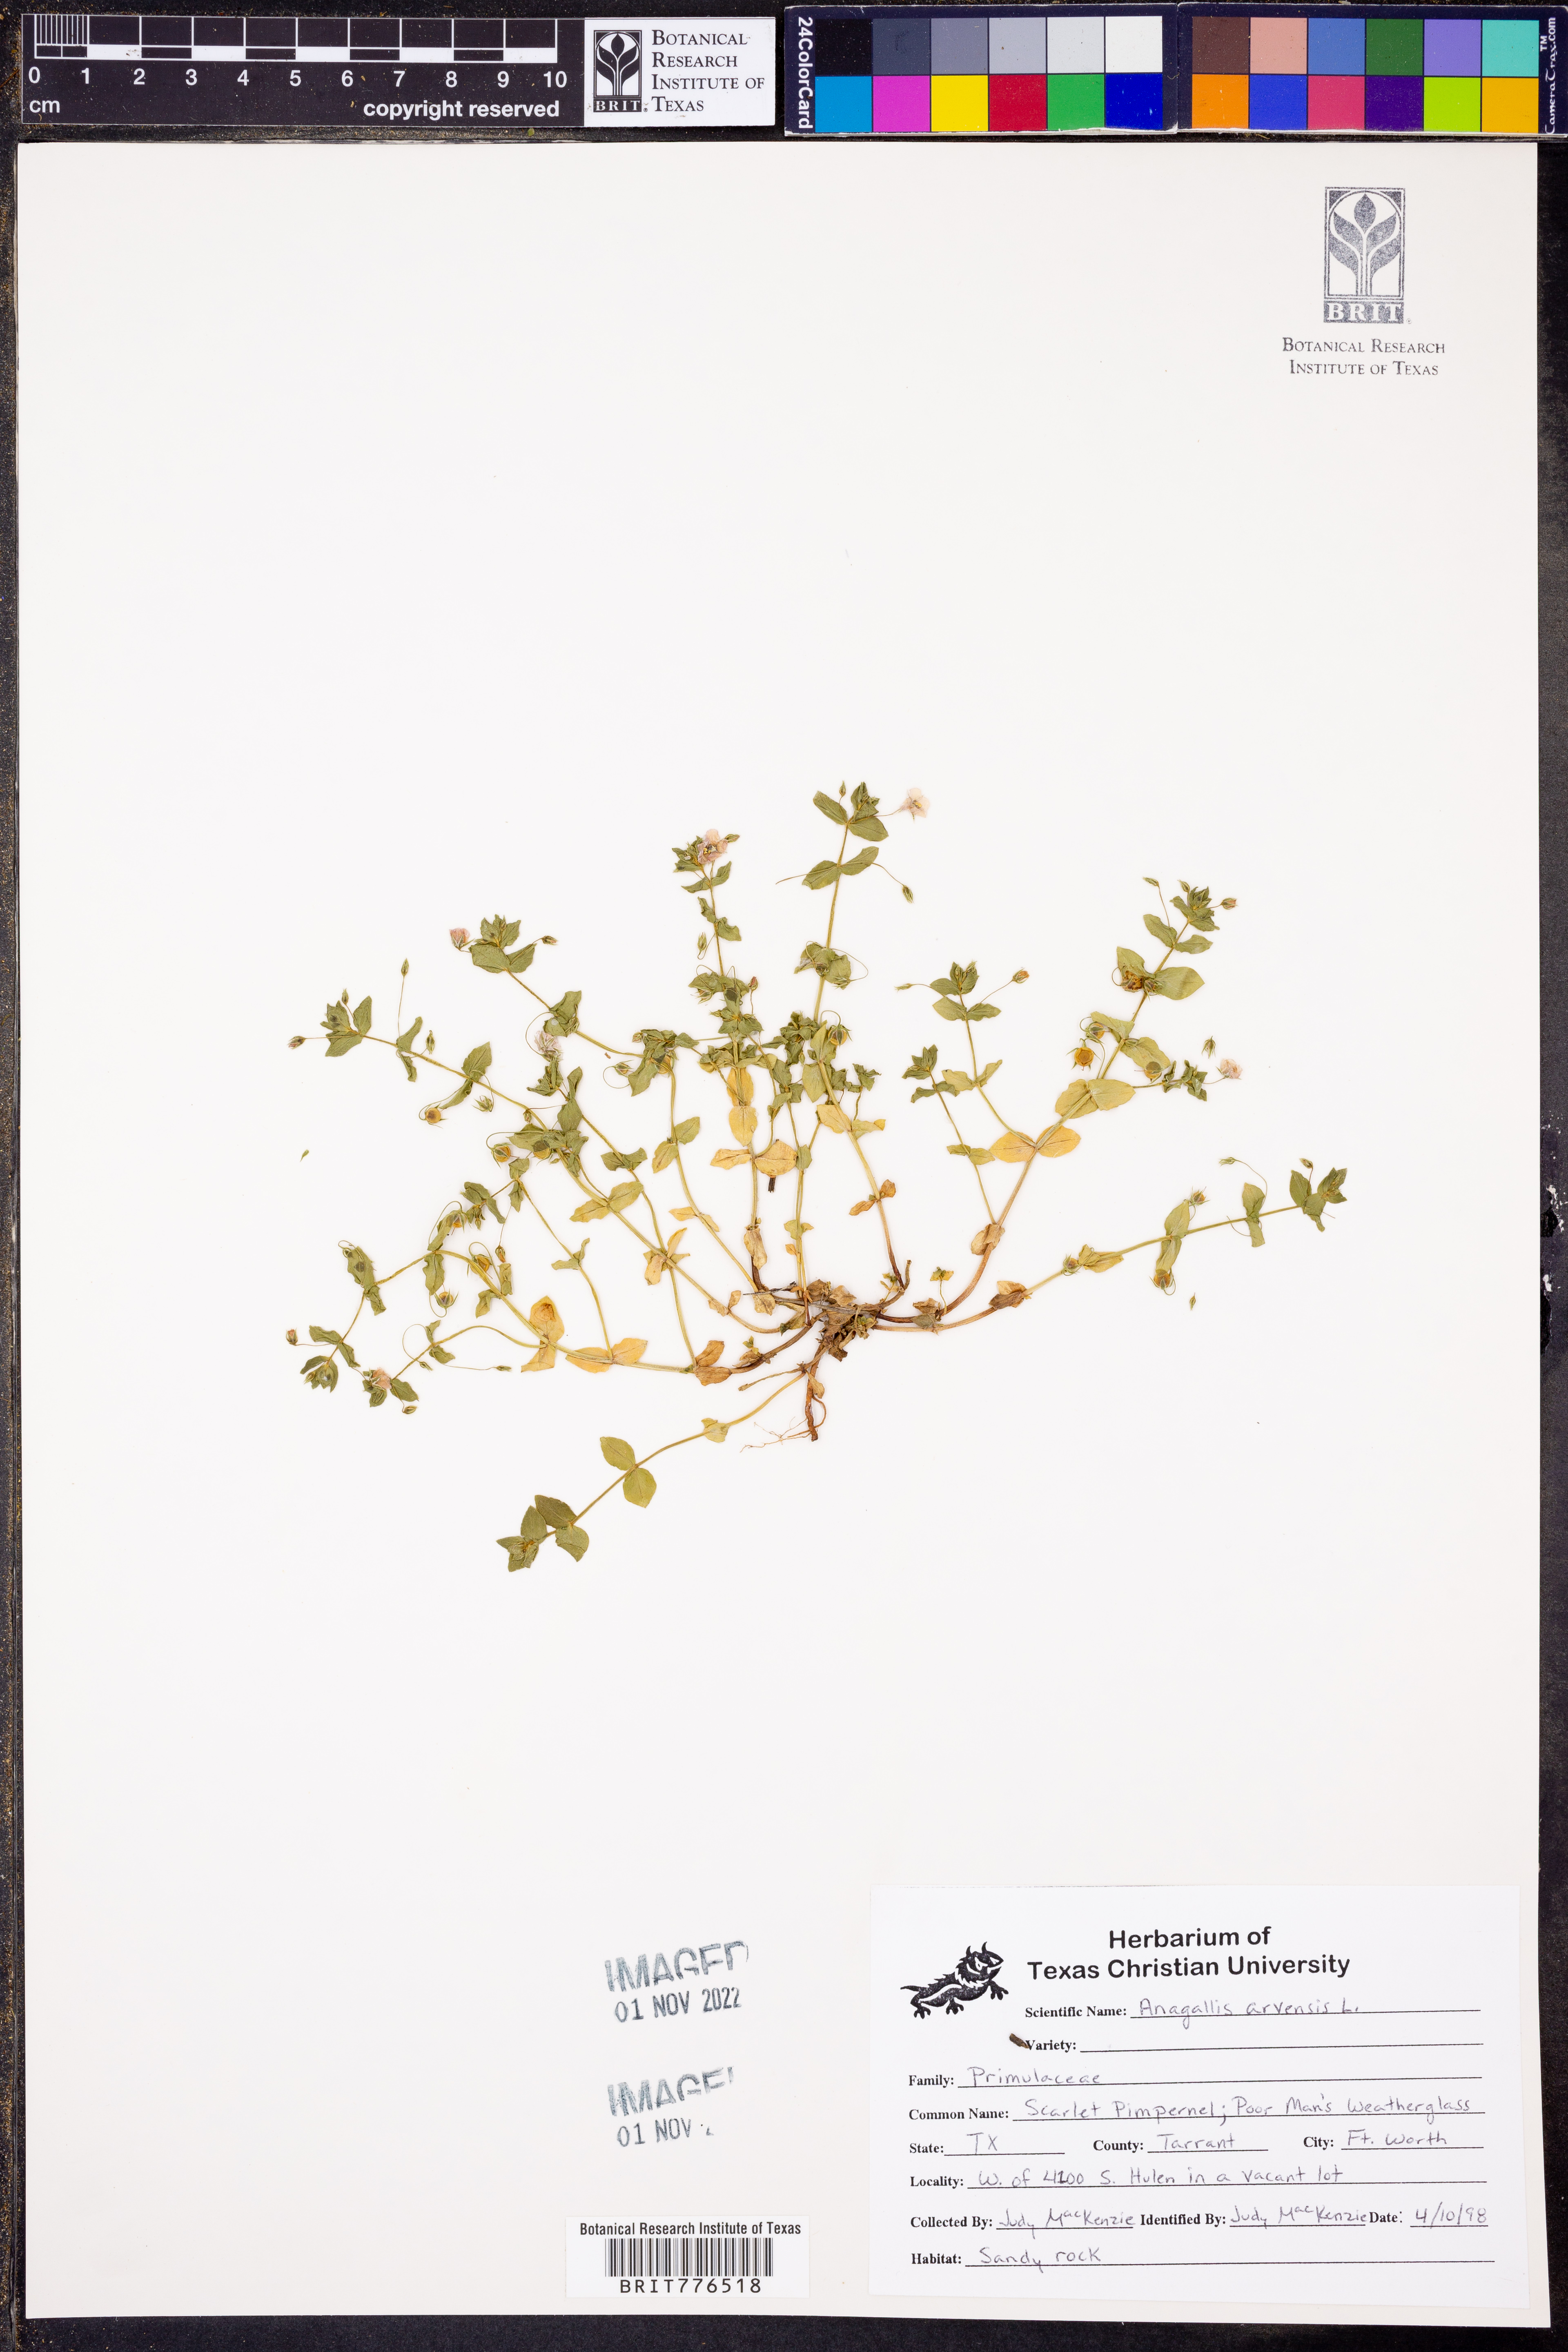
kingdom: Plantae
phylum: Tracheophyta
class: Magnoliopsida
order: Ericales
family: Primulaceae
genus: Lysimachia
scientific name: Lysimachia arvensis
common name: Scarlet pimpernel
